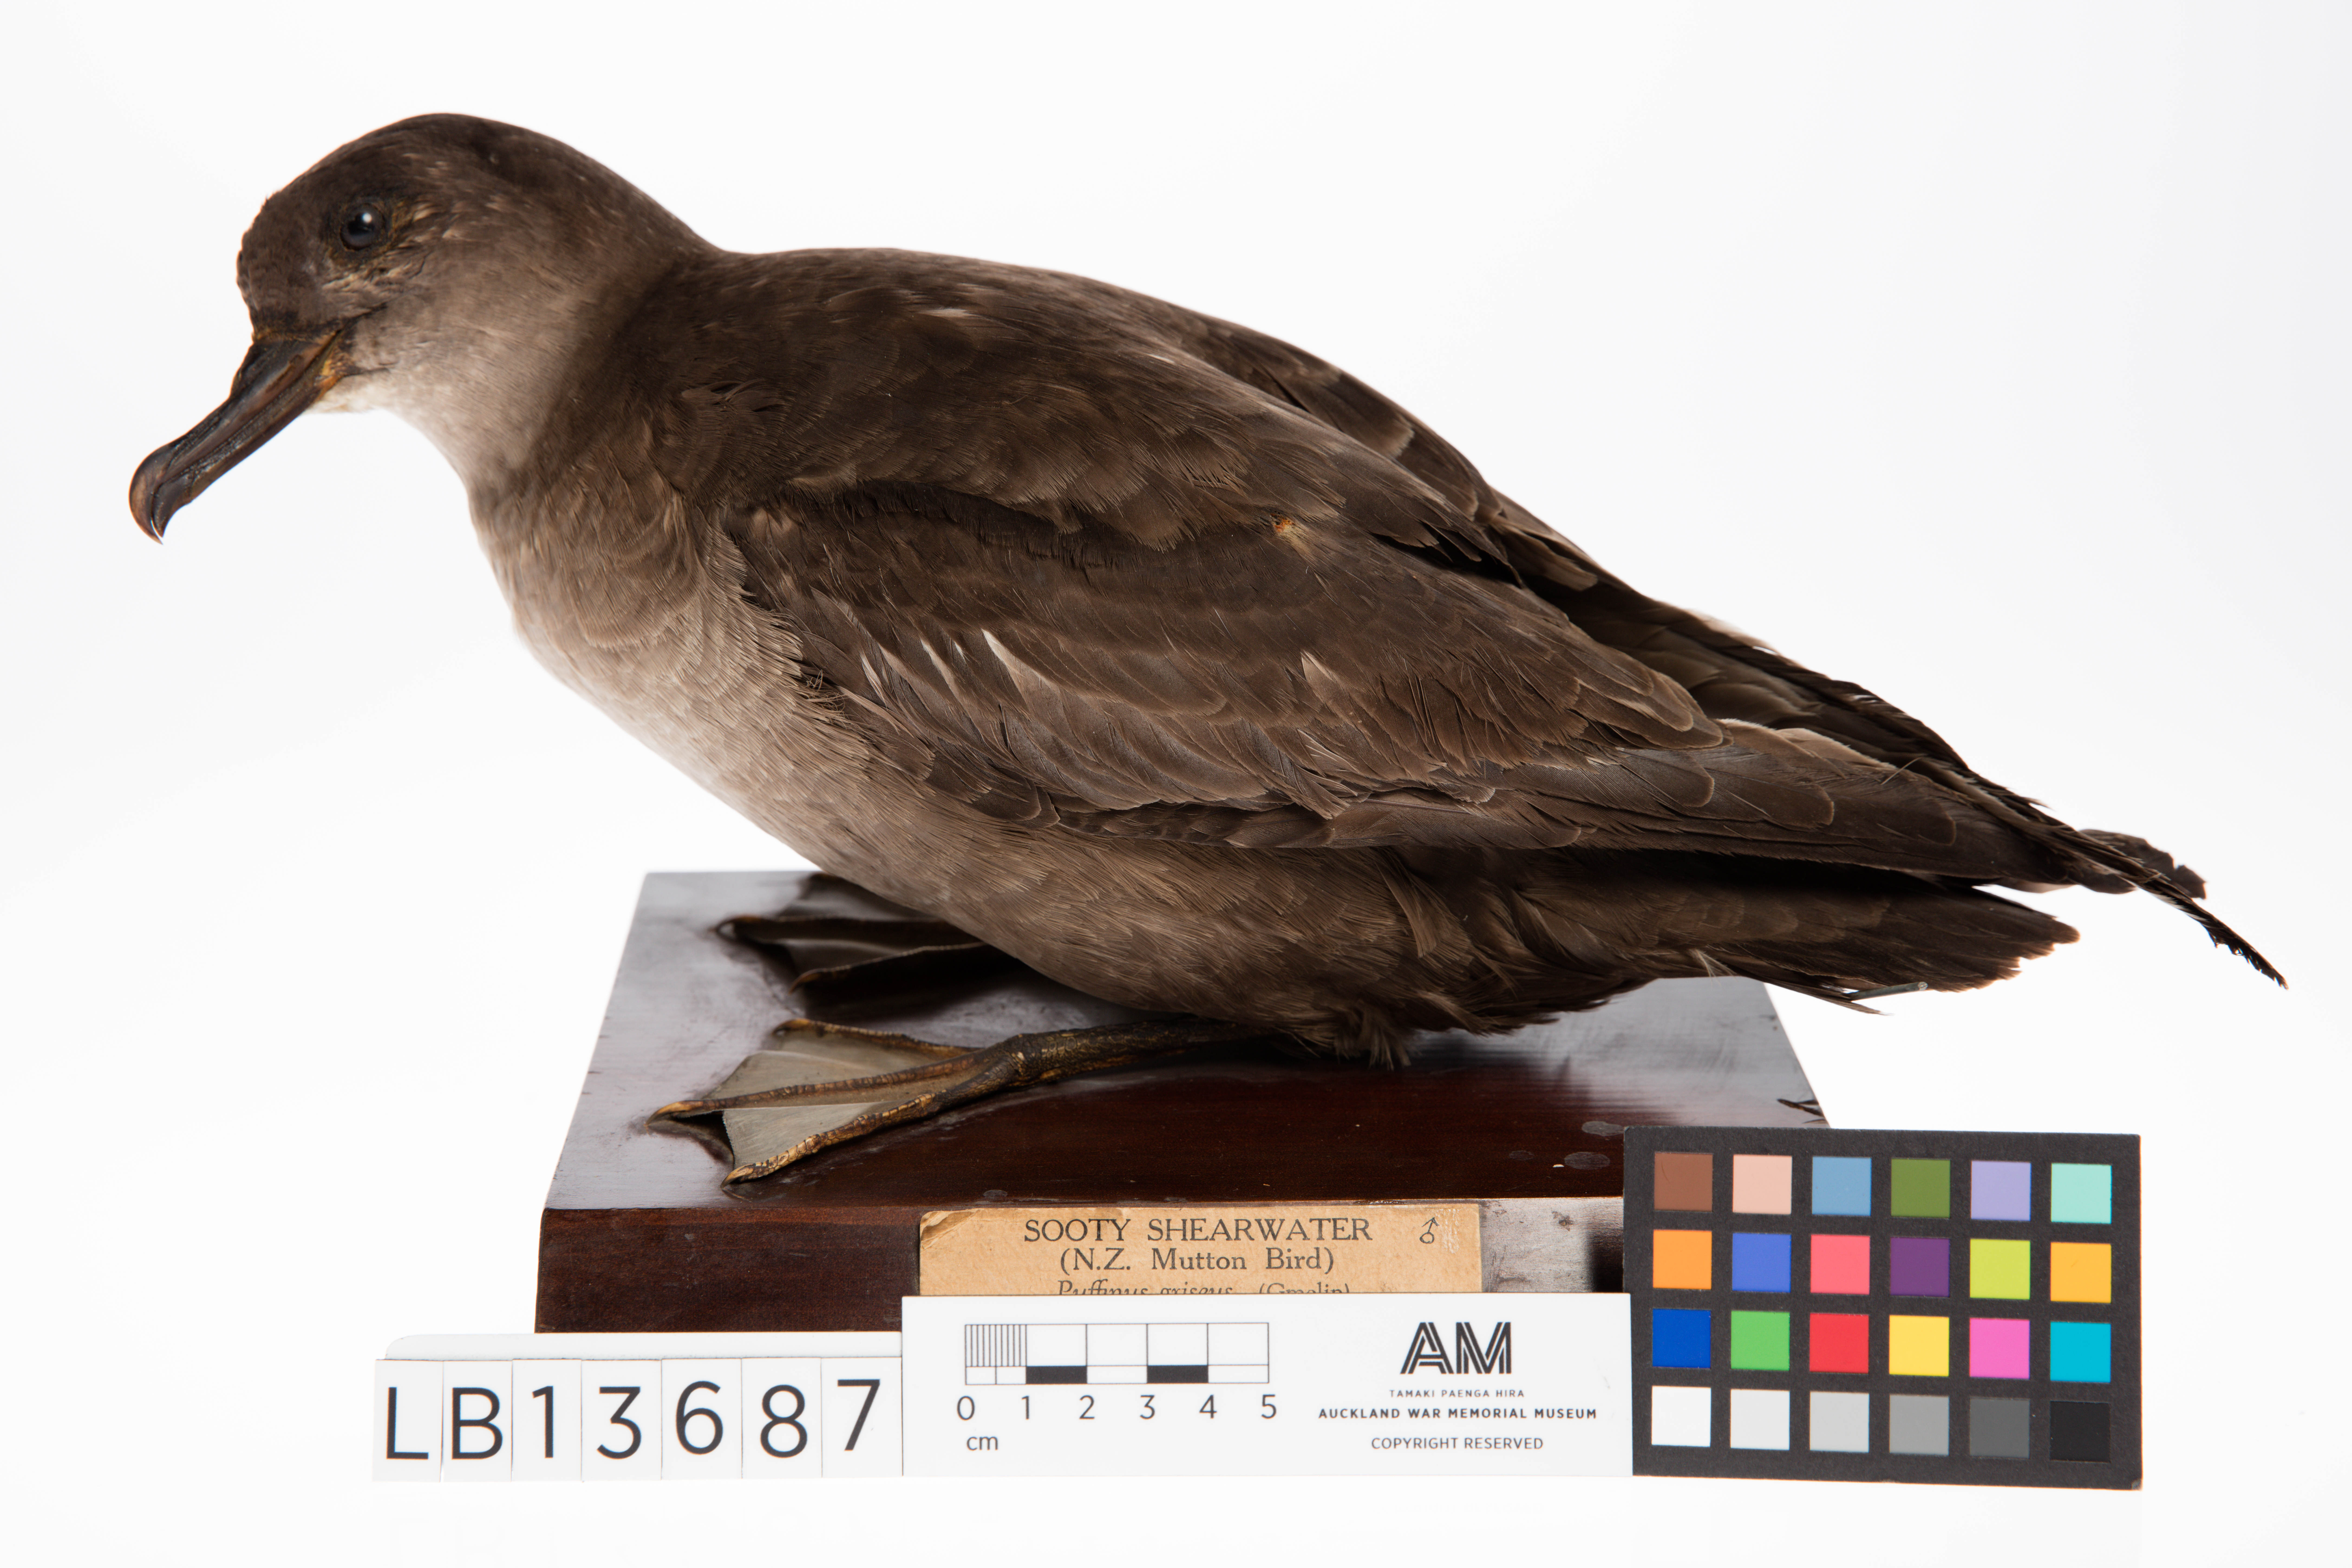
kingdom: Animalia
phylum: Chordata
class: Aves
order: Procellariiformes
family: Procellariidae
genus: Puffinus
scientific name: Puffinus griseus
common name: Sooty shearwater
